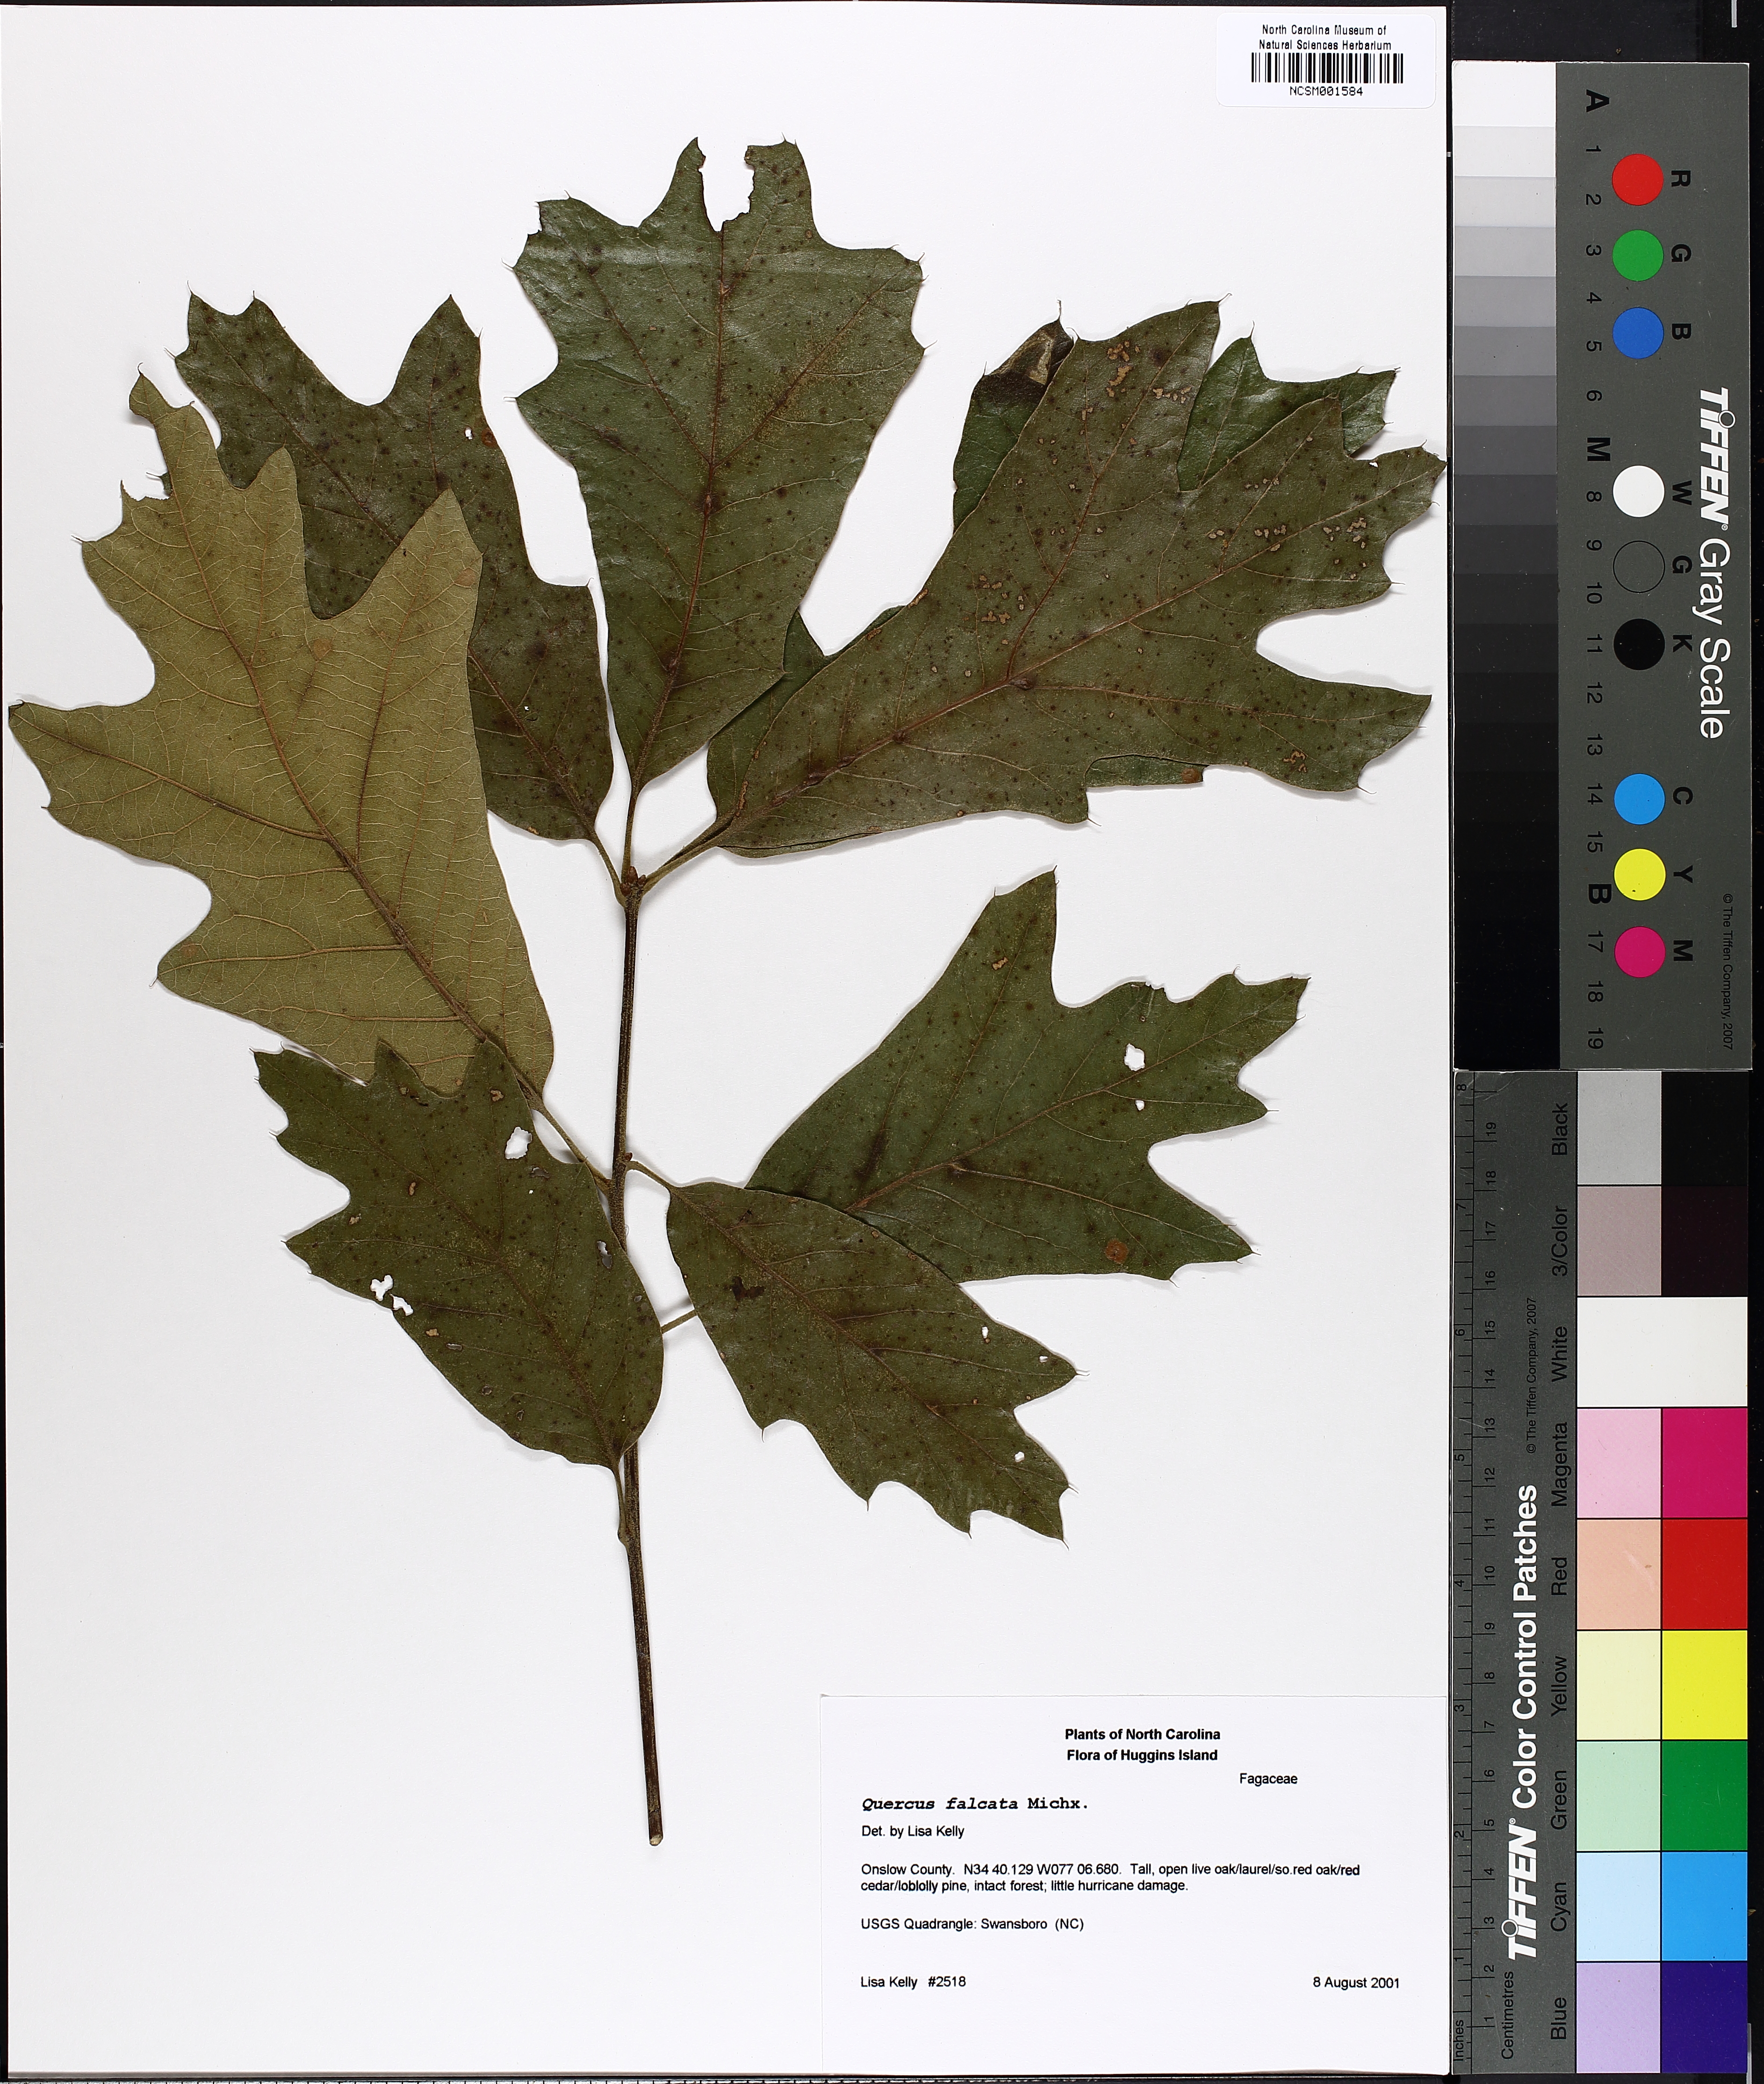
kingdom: Plantae
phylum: Tracheophyta
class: Magnoliopsida
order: Fagales
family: Fagaceae
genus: Quercus
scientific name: Quercus falcata
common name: Southern red oak
